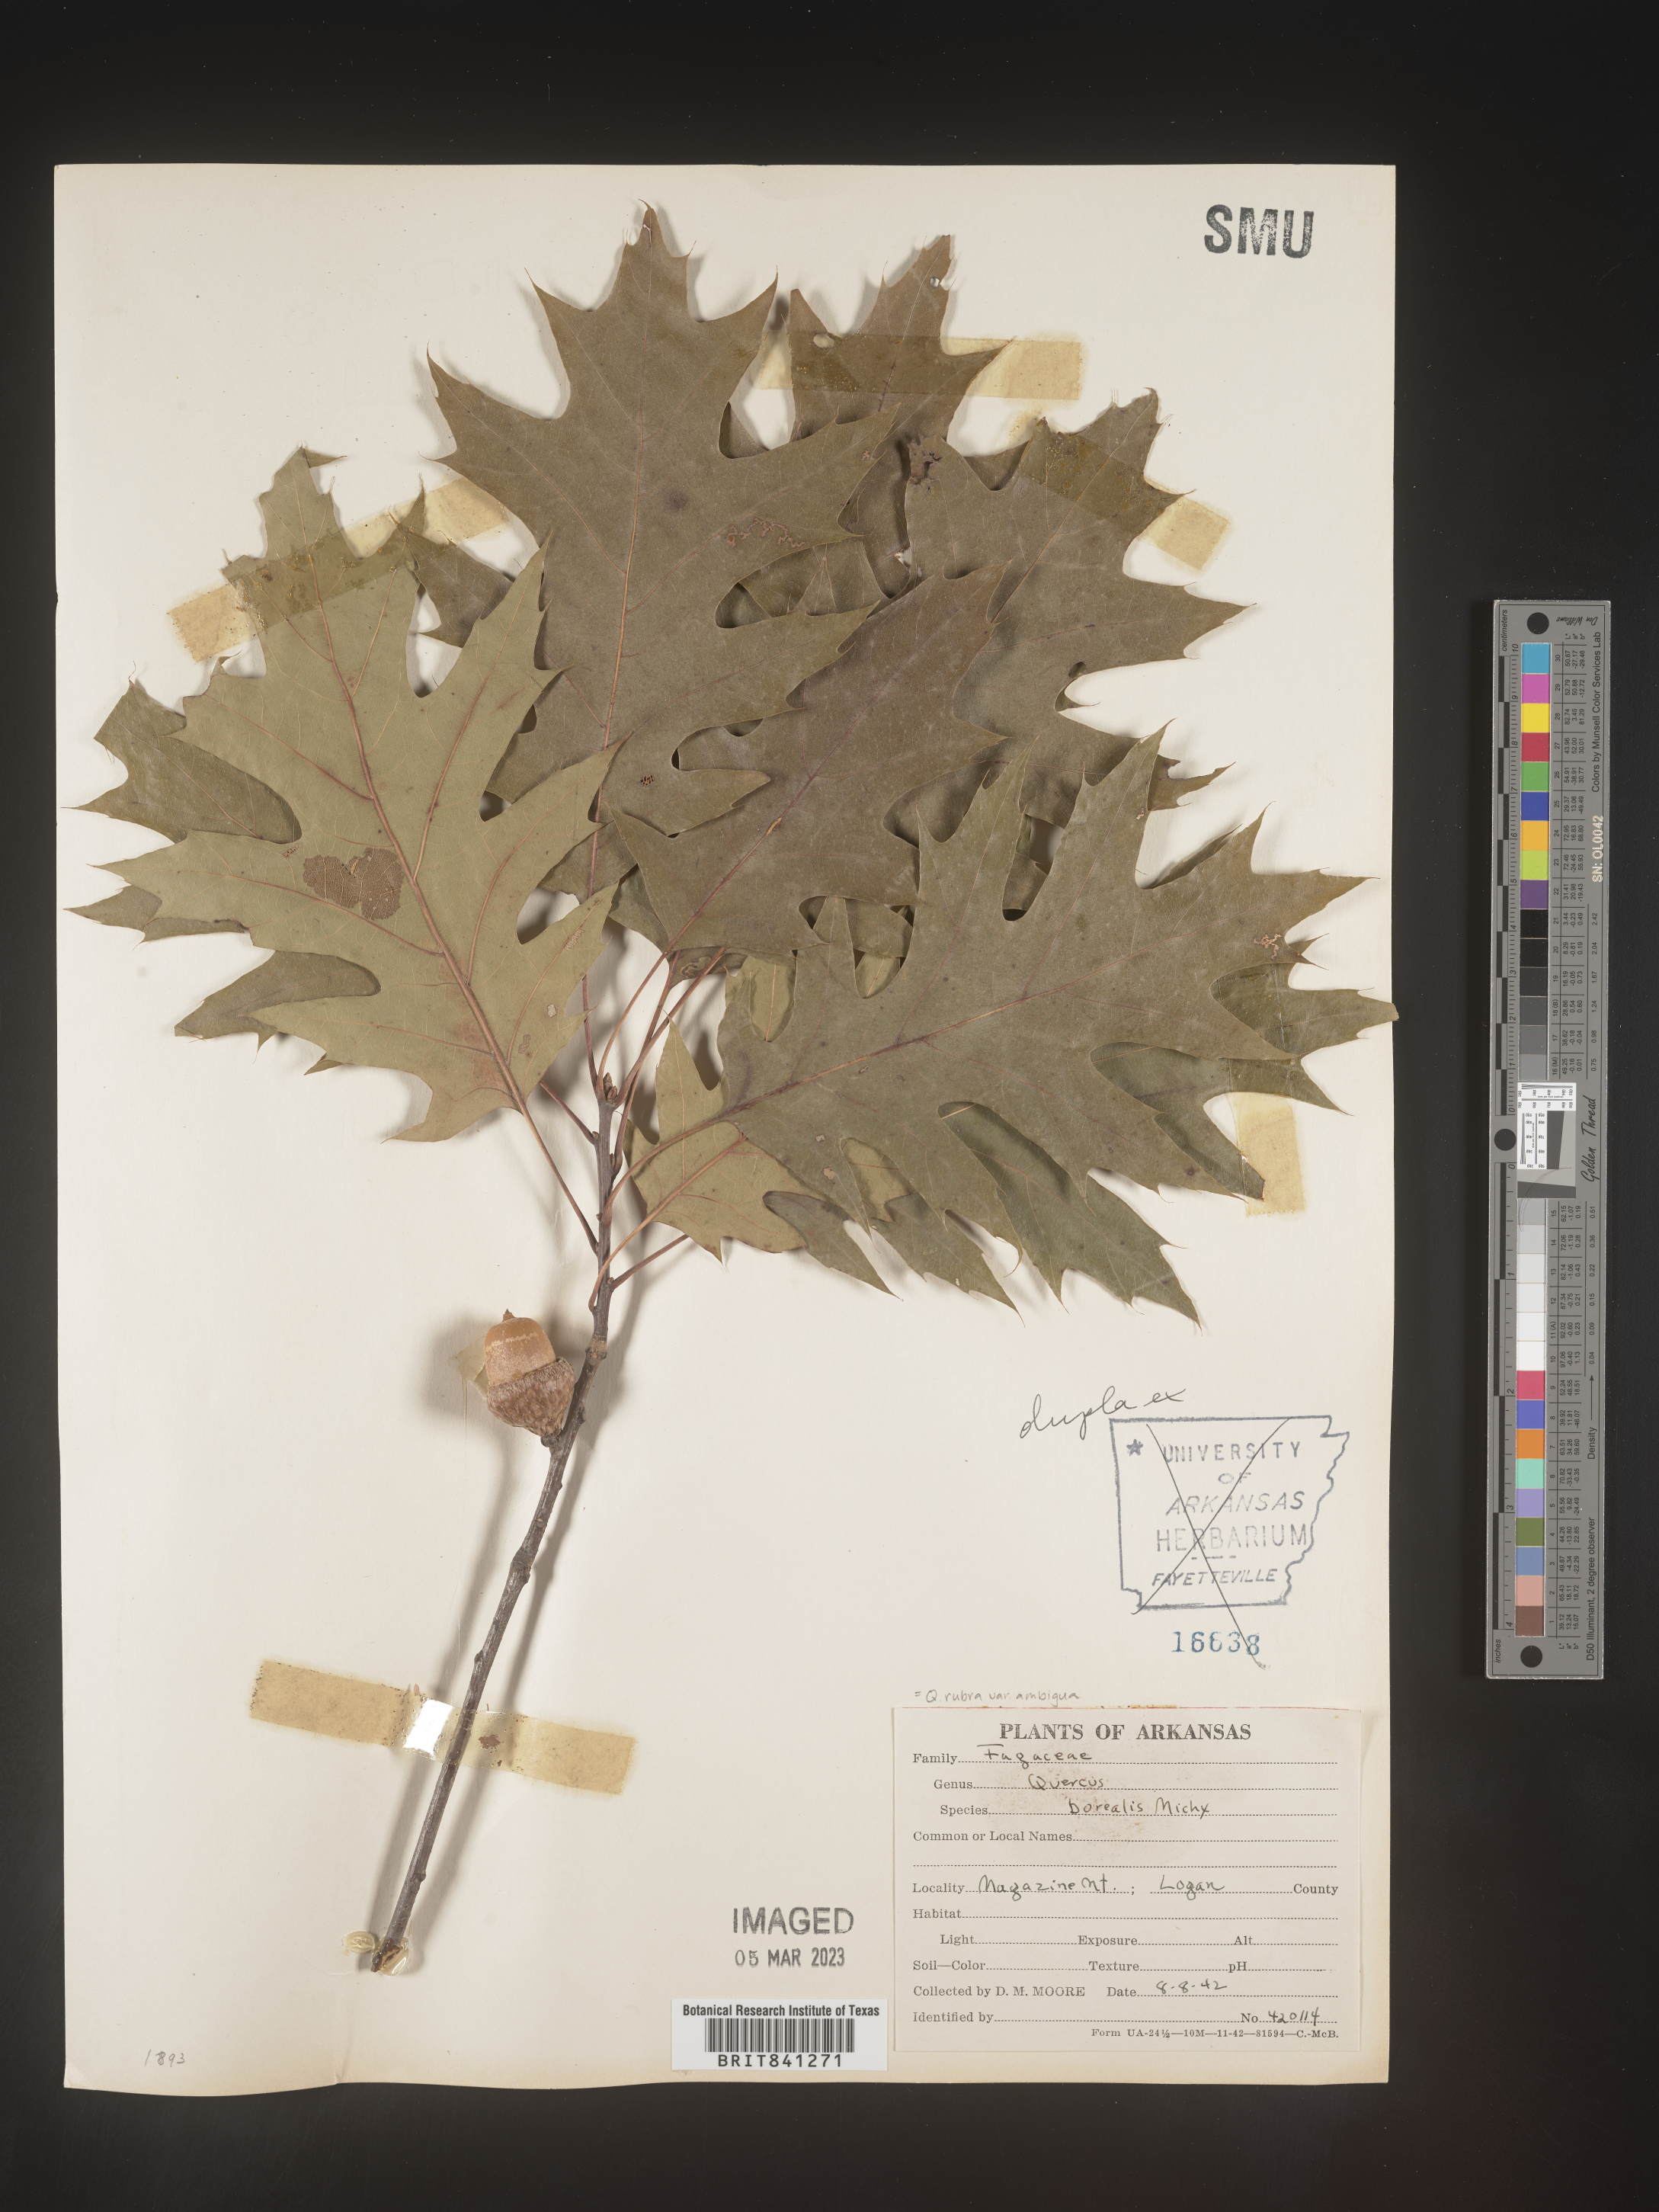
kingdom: Plantae
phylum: Tracheophyta
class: Magnoliopsida
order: Fagales
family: Fagaceae
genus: Quercus
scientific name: Quercus rubra
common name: Red oak
